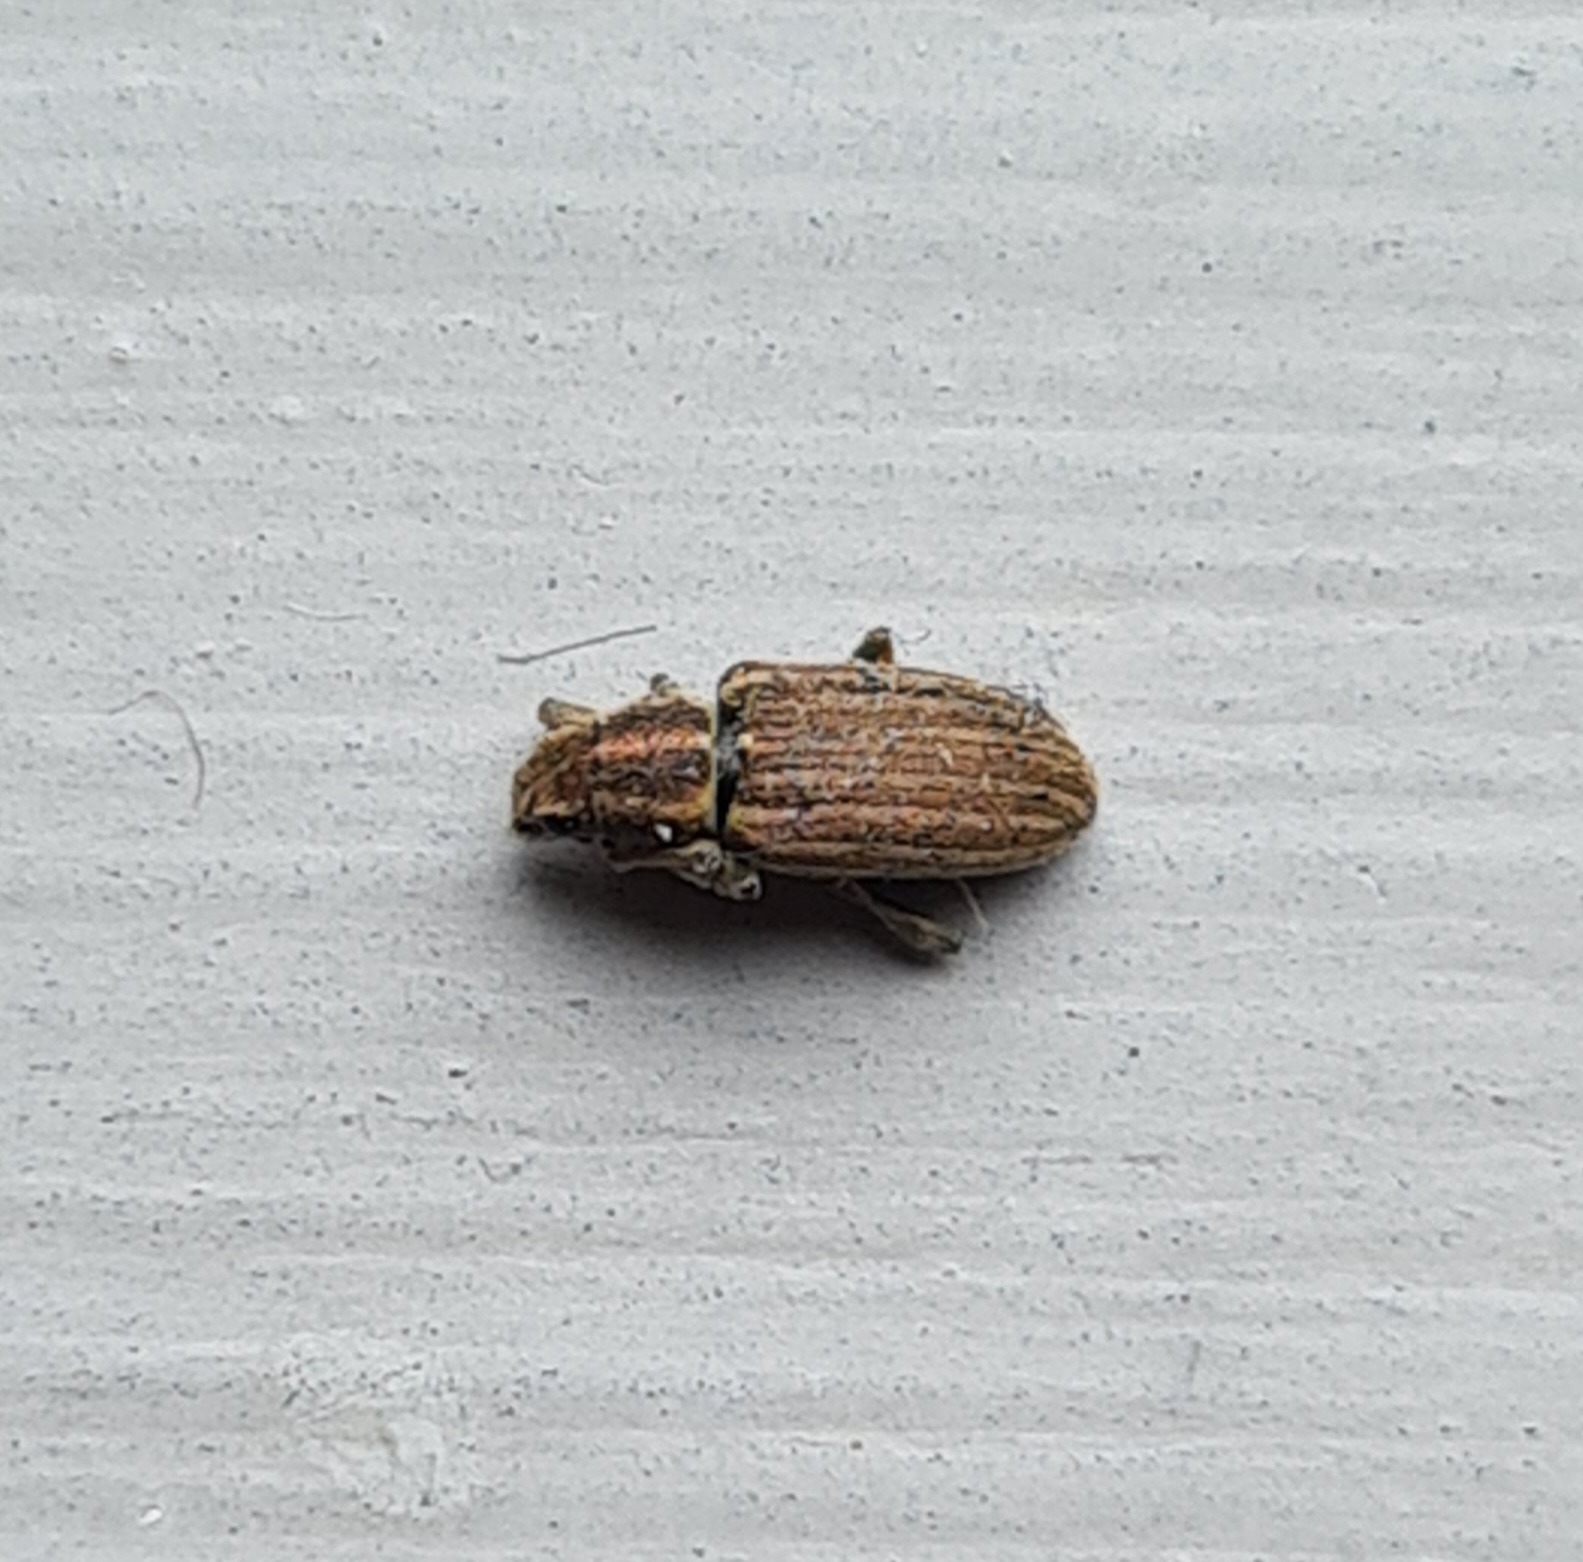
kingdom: Animalia
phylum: Arthropoda
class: Insecta
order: Coleoptera
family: Curculionidae
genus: Sitona
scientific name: Sitona lineatus
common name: Stribet bladrandbille
